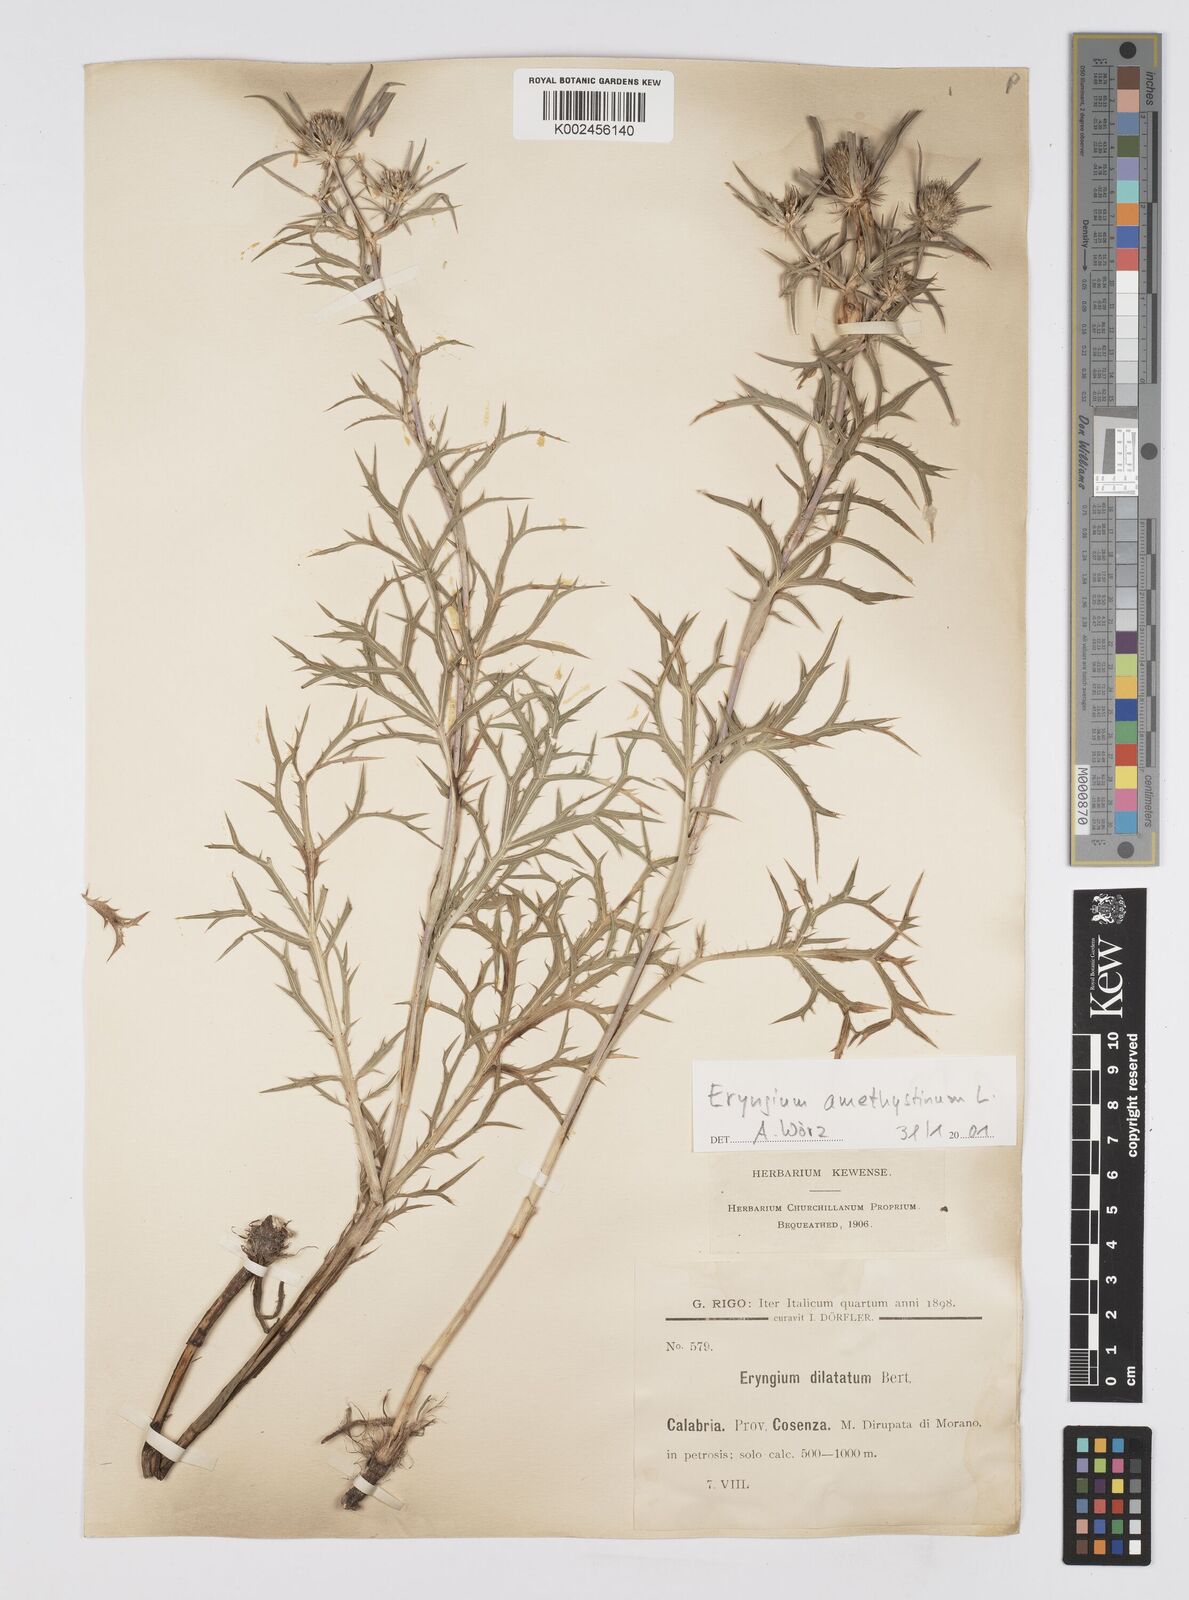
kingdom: Plantae
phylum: Tracheophyta
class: Magnoliopsida
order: Apiales
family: Apiaceae
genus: Eryngium
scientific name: Eryngium dilatatum
